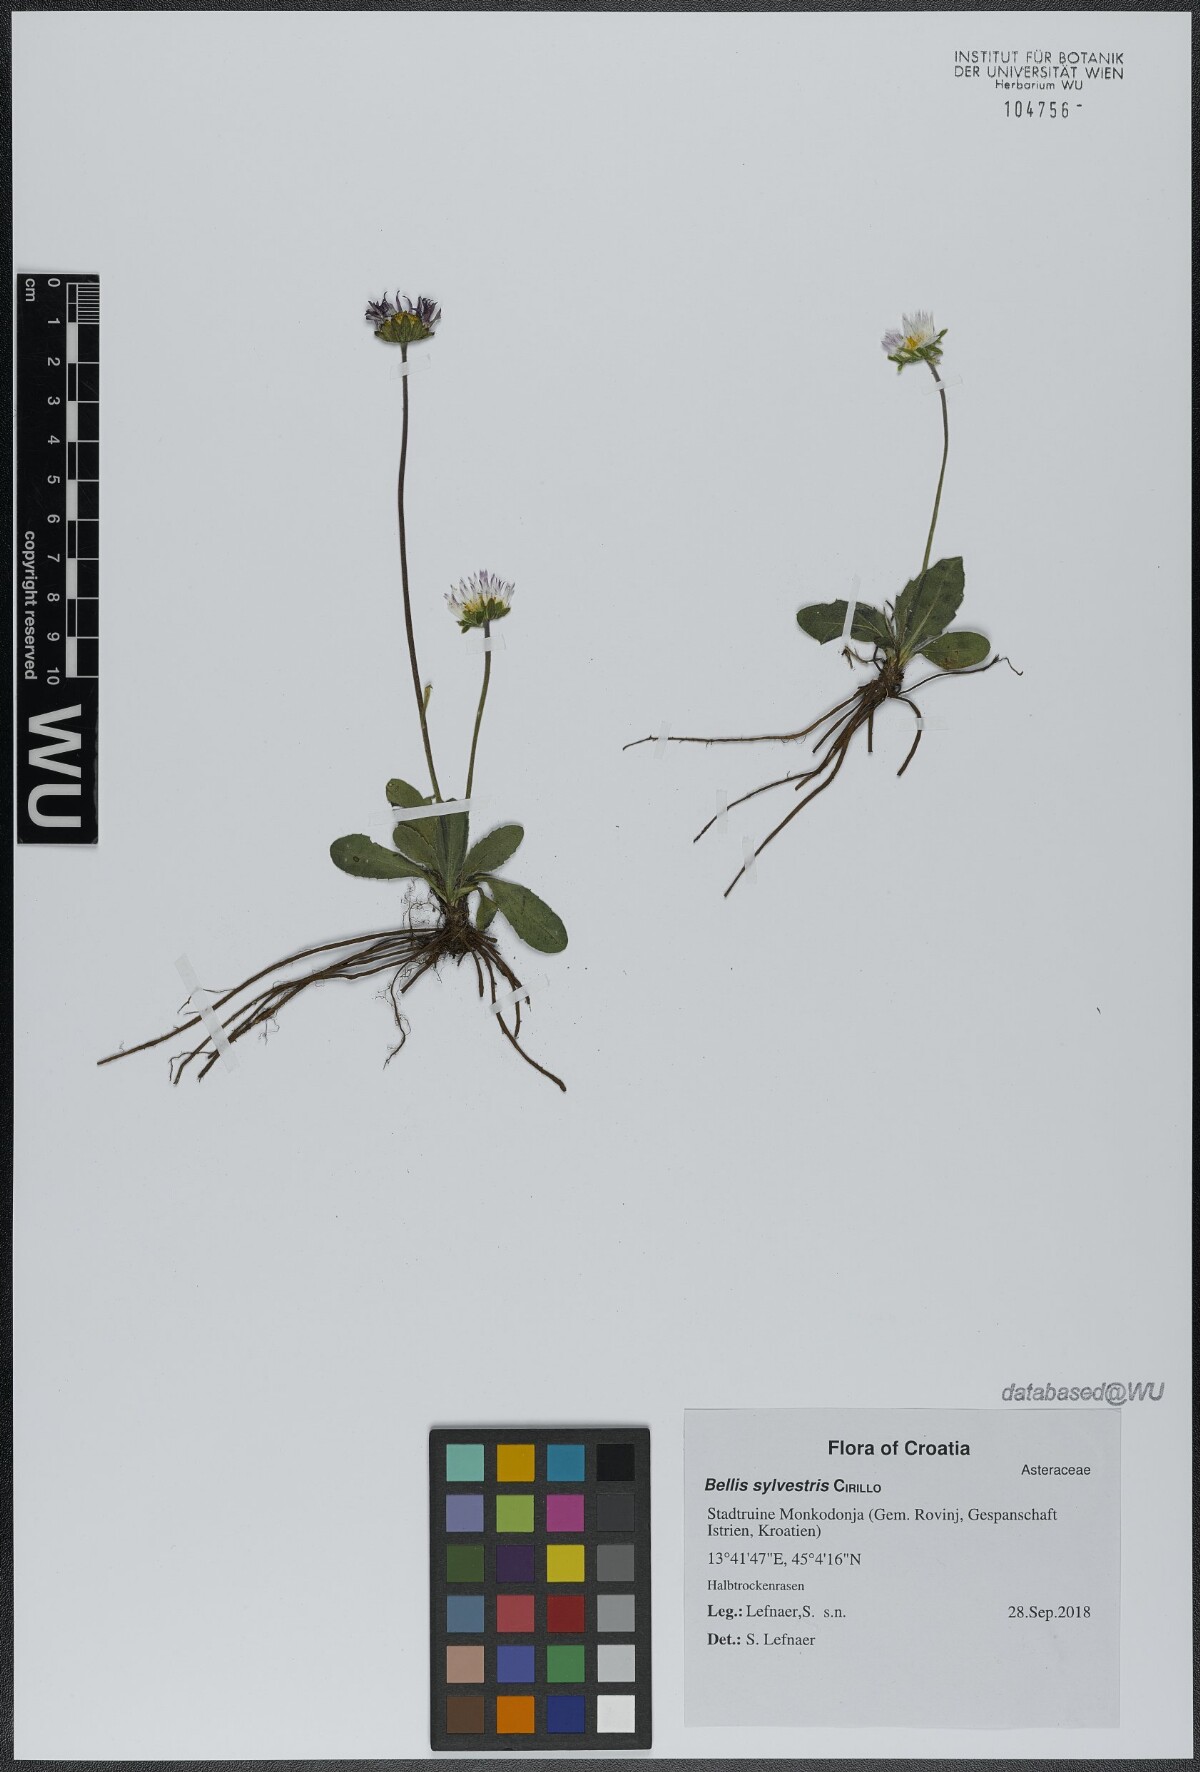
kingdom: Plantae
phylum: Tracheophyta
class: Magnoliopsida
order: Asterales
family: Asteraceae
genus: Bellis
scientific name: Bellis sylvestris
